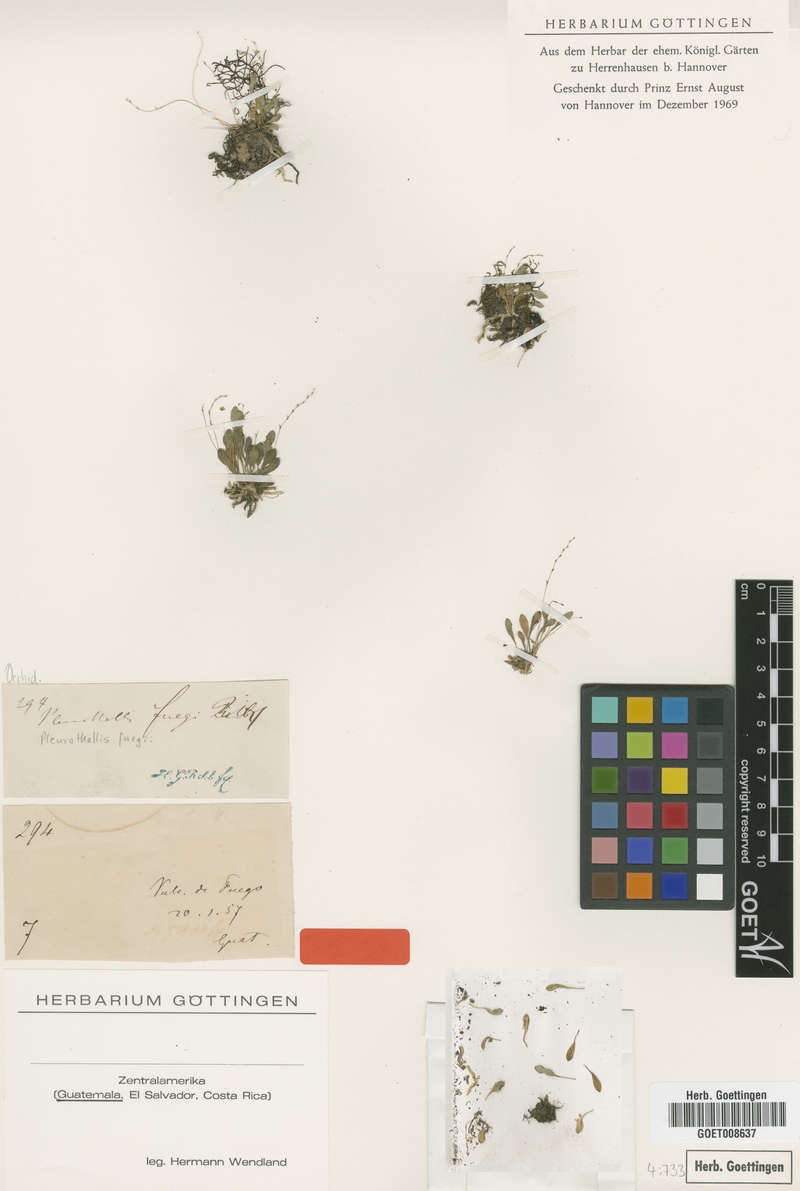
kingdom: Plantae
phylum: Tracheophyta
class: Liliopsida
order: Asparagales
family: Orchidaceae
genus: Specklinia
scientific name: Specklinia fuegi
